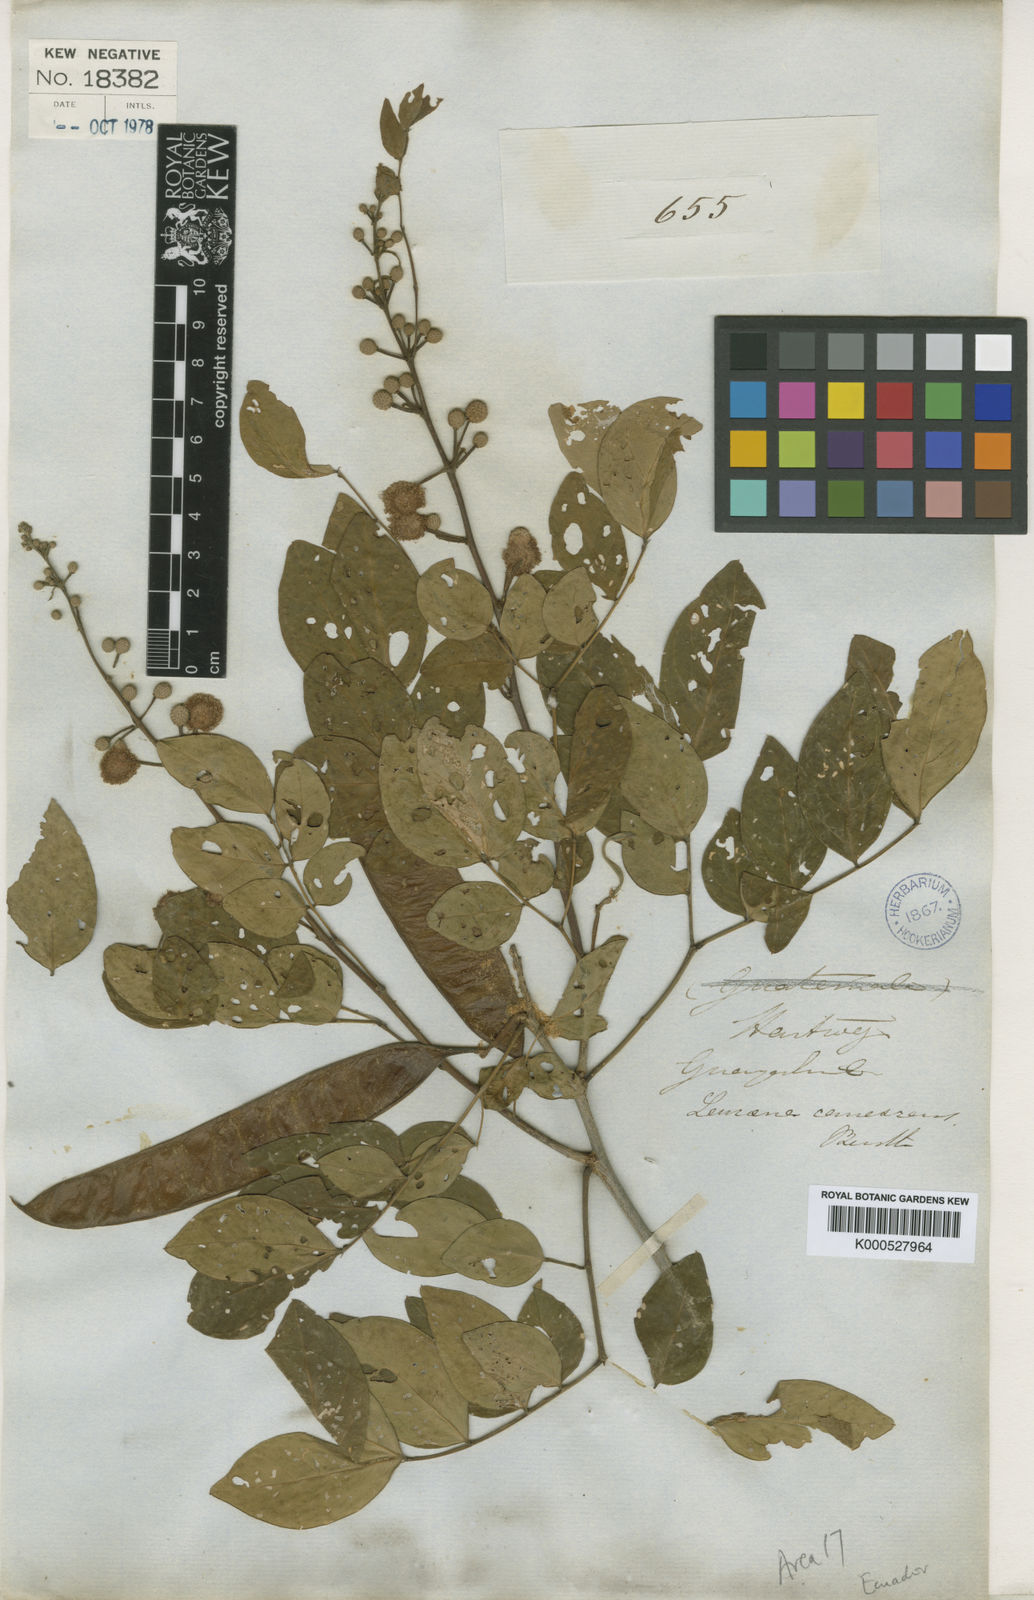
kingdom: Plantae
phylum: Tracheophyta
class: Magnoliopsida
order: Fabales
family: Fabaceae
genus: Leucaena
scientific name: Leucaena trichodes
